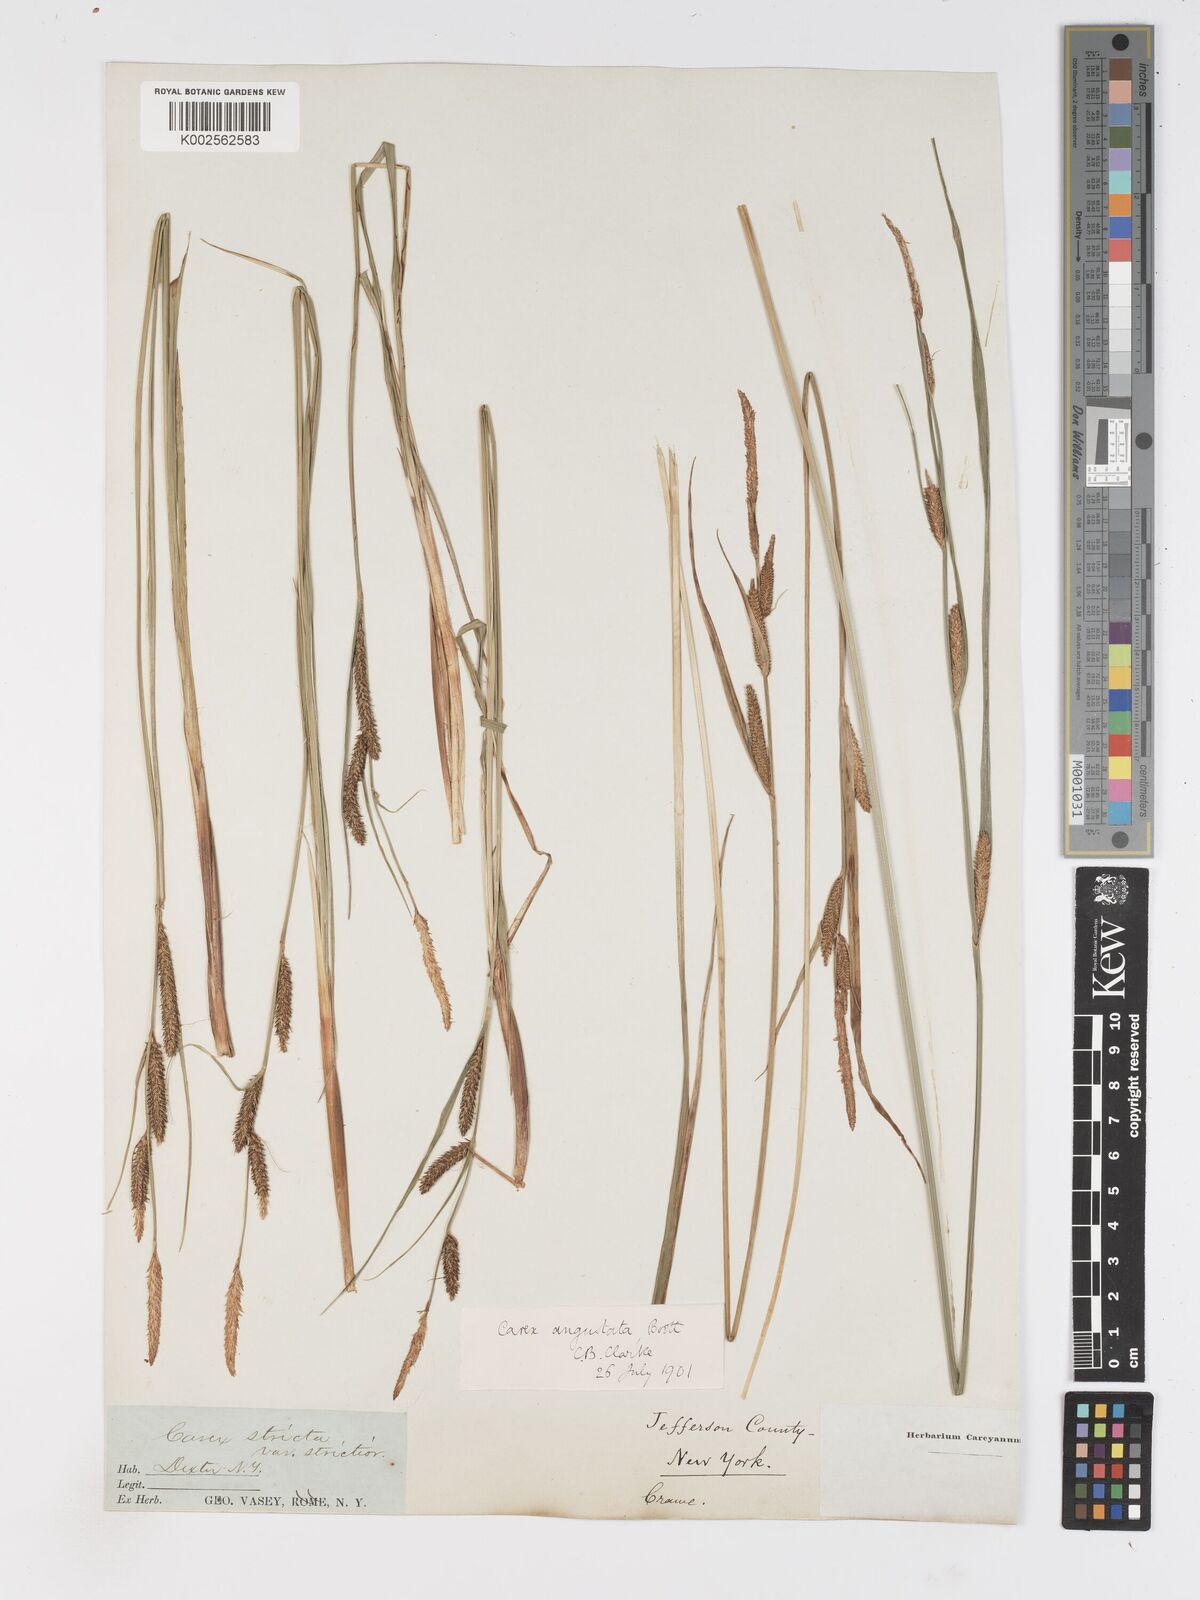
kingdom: Plantae
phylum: Tracheophyta
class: Liliopsida
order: Poales
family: Cyperaceae
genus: Carex
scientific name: Carex haydenii
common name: Hayden's sedge
